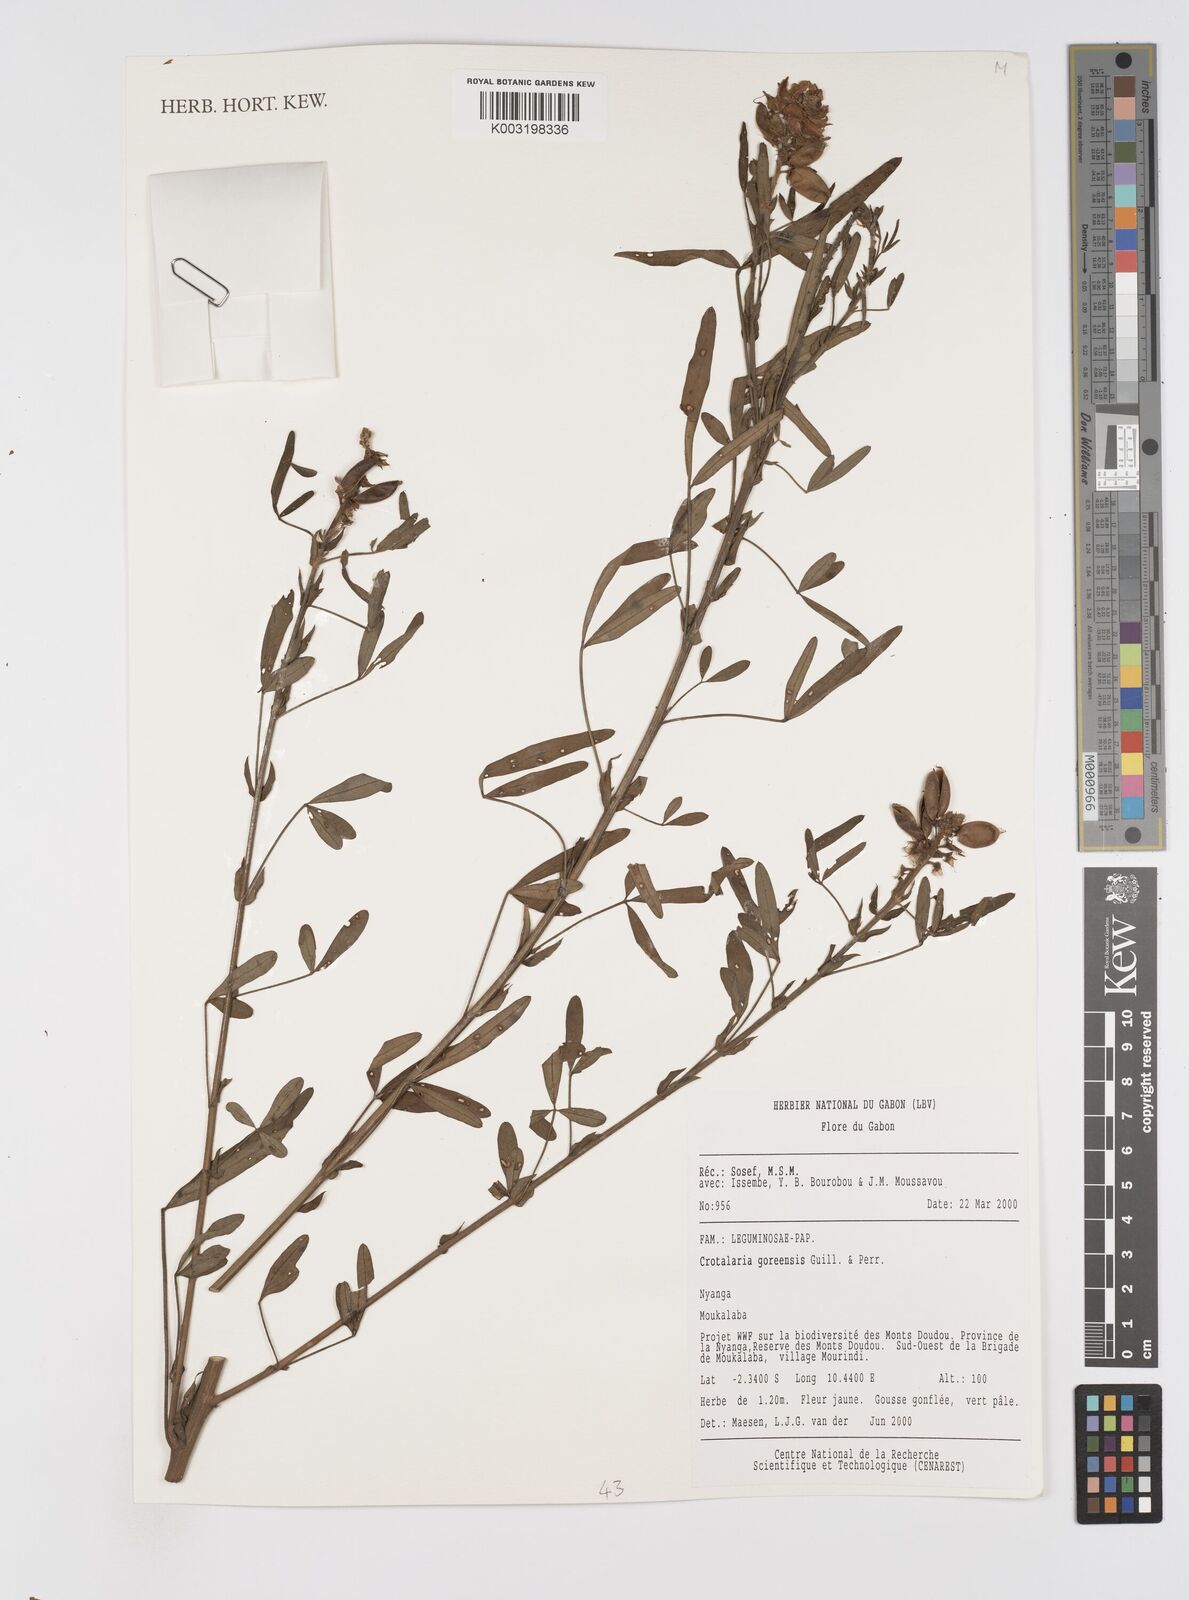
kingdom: Plantae
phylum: Tracheophyta
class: Magnoliopsida
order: Fabales
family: Fabaceae
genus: Crotalaria
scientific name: Crotalaria goreensis
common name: Gambia-pea
